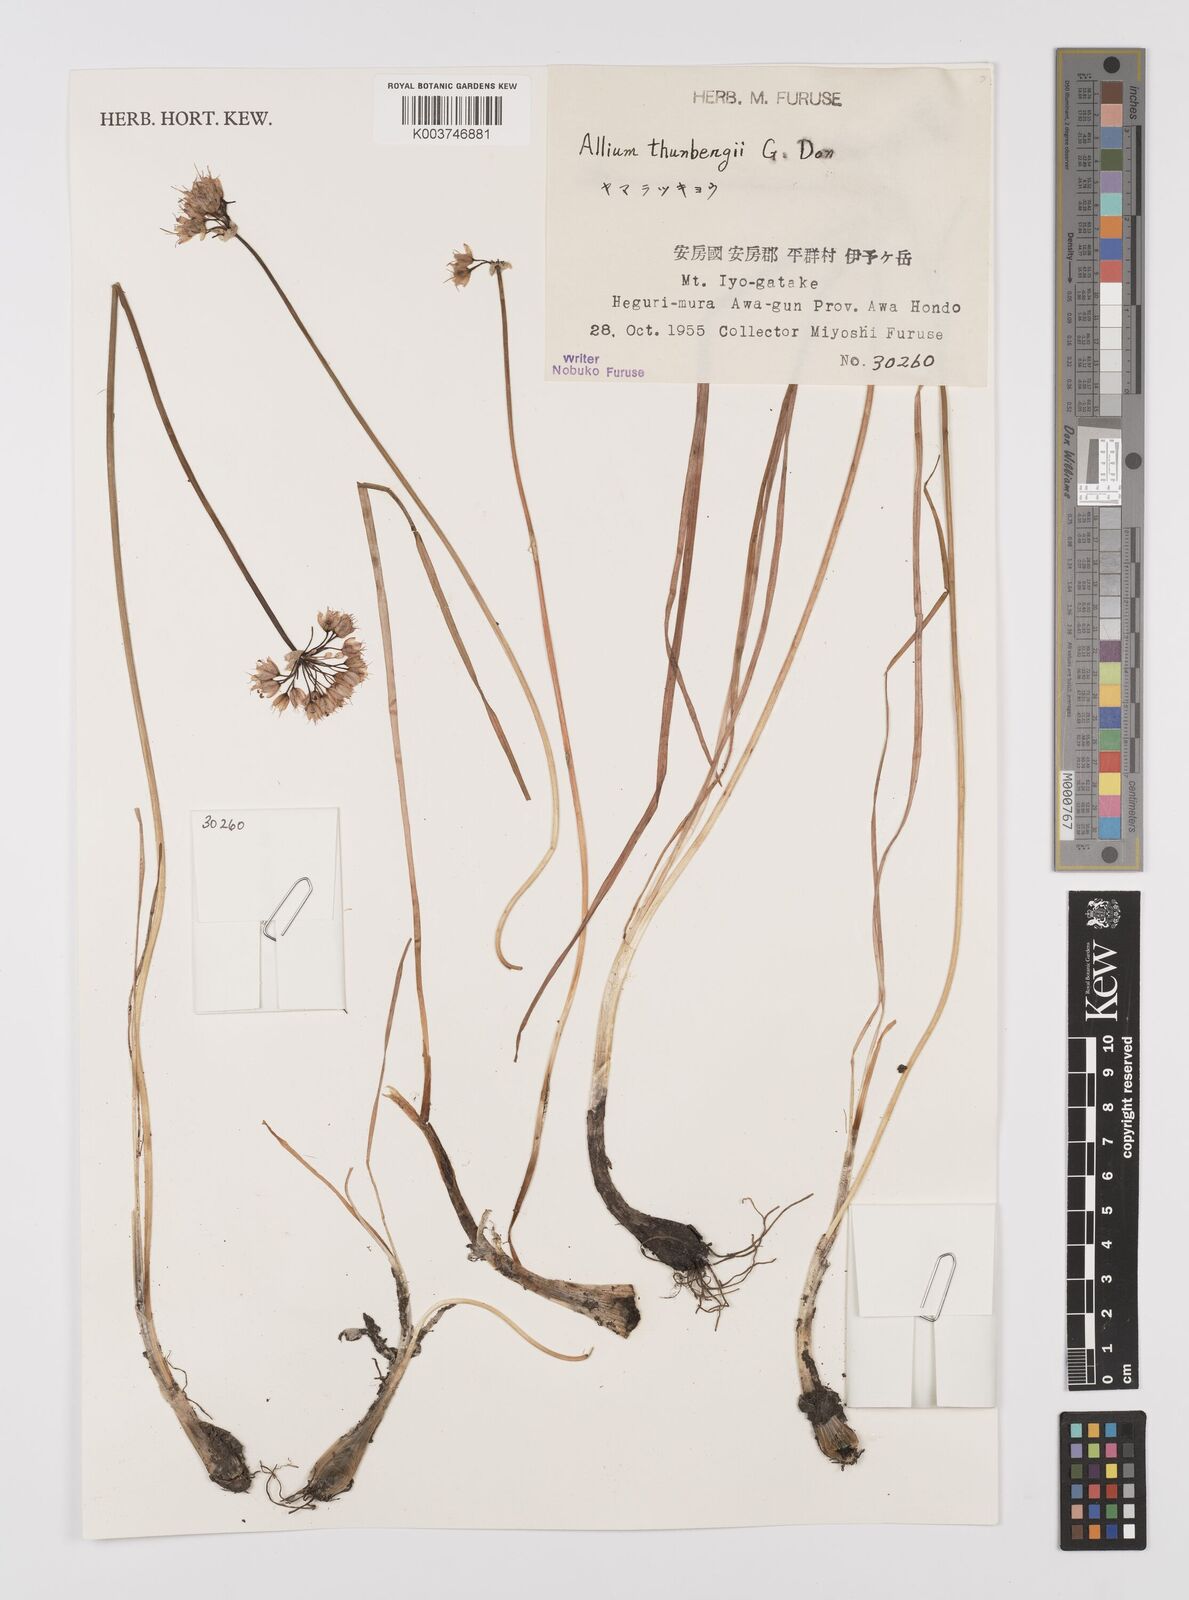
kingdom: Plantae
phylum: Tracheophyta
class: Liliopsida
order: Asparagales
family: Amaryllidaceae
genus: Allium
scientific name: Allium thunbergii
